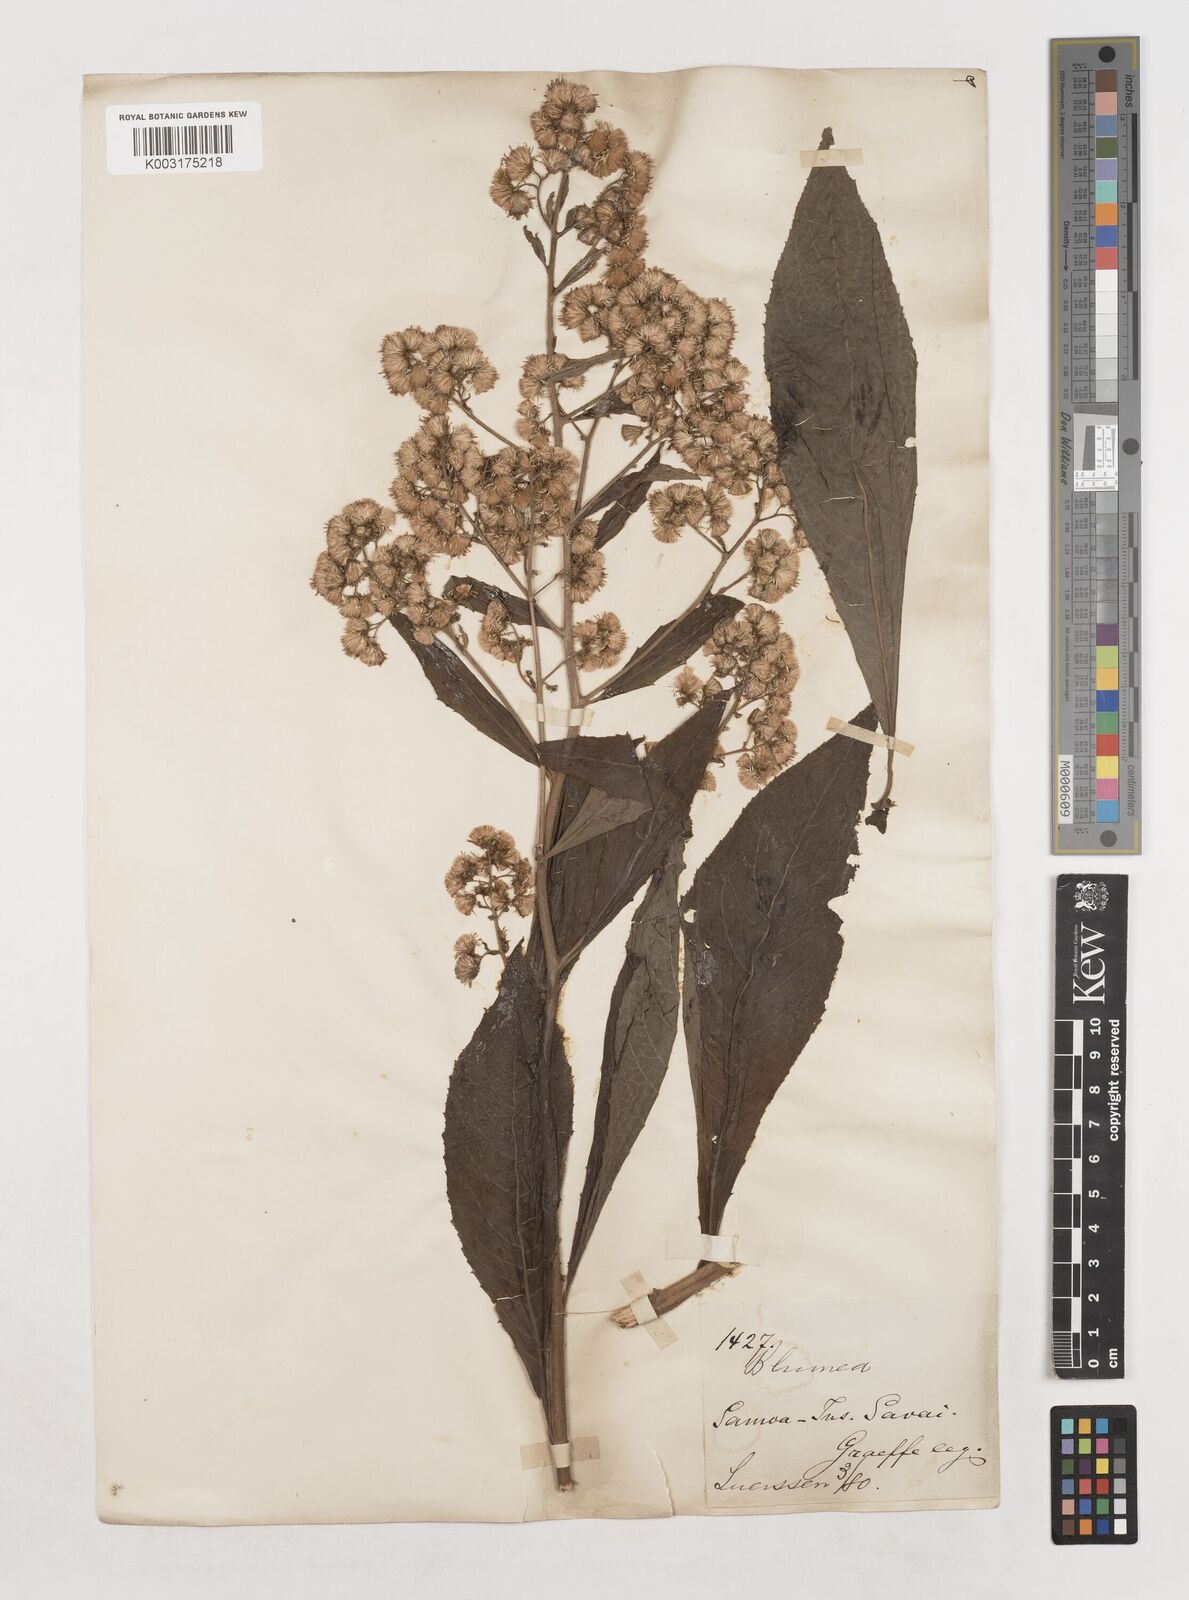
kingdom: Plantae
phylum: Tracheophyta
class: Magnoliopsida
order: Asterales
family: Asteraceae
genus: Blumea
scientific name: Blumea
